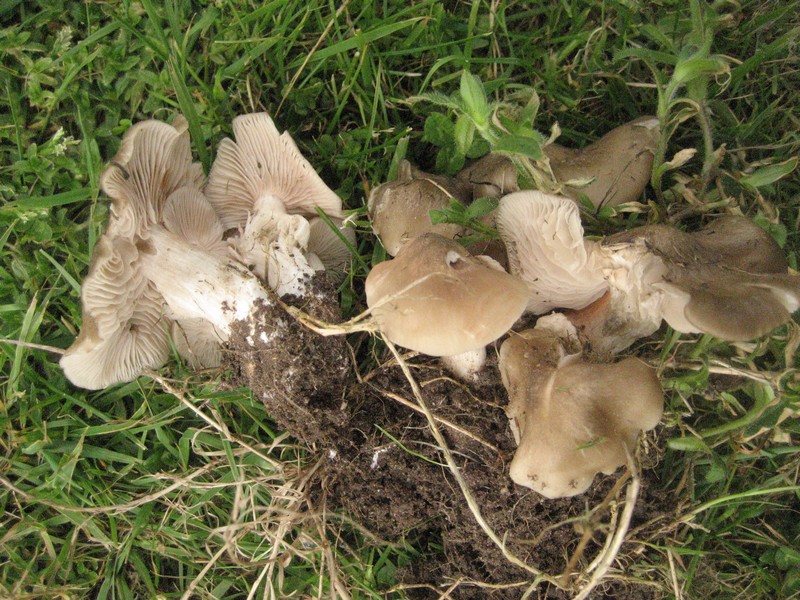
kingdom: Fungi
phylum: Basidiomycota
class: Agaricomycetes
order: Agaricales
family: Entolomataceae
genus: Entoloma
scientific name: Entoloma clypeatum
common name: flammet rødblad
